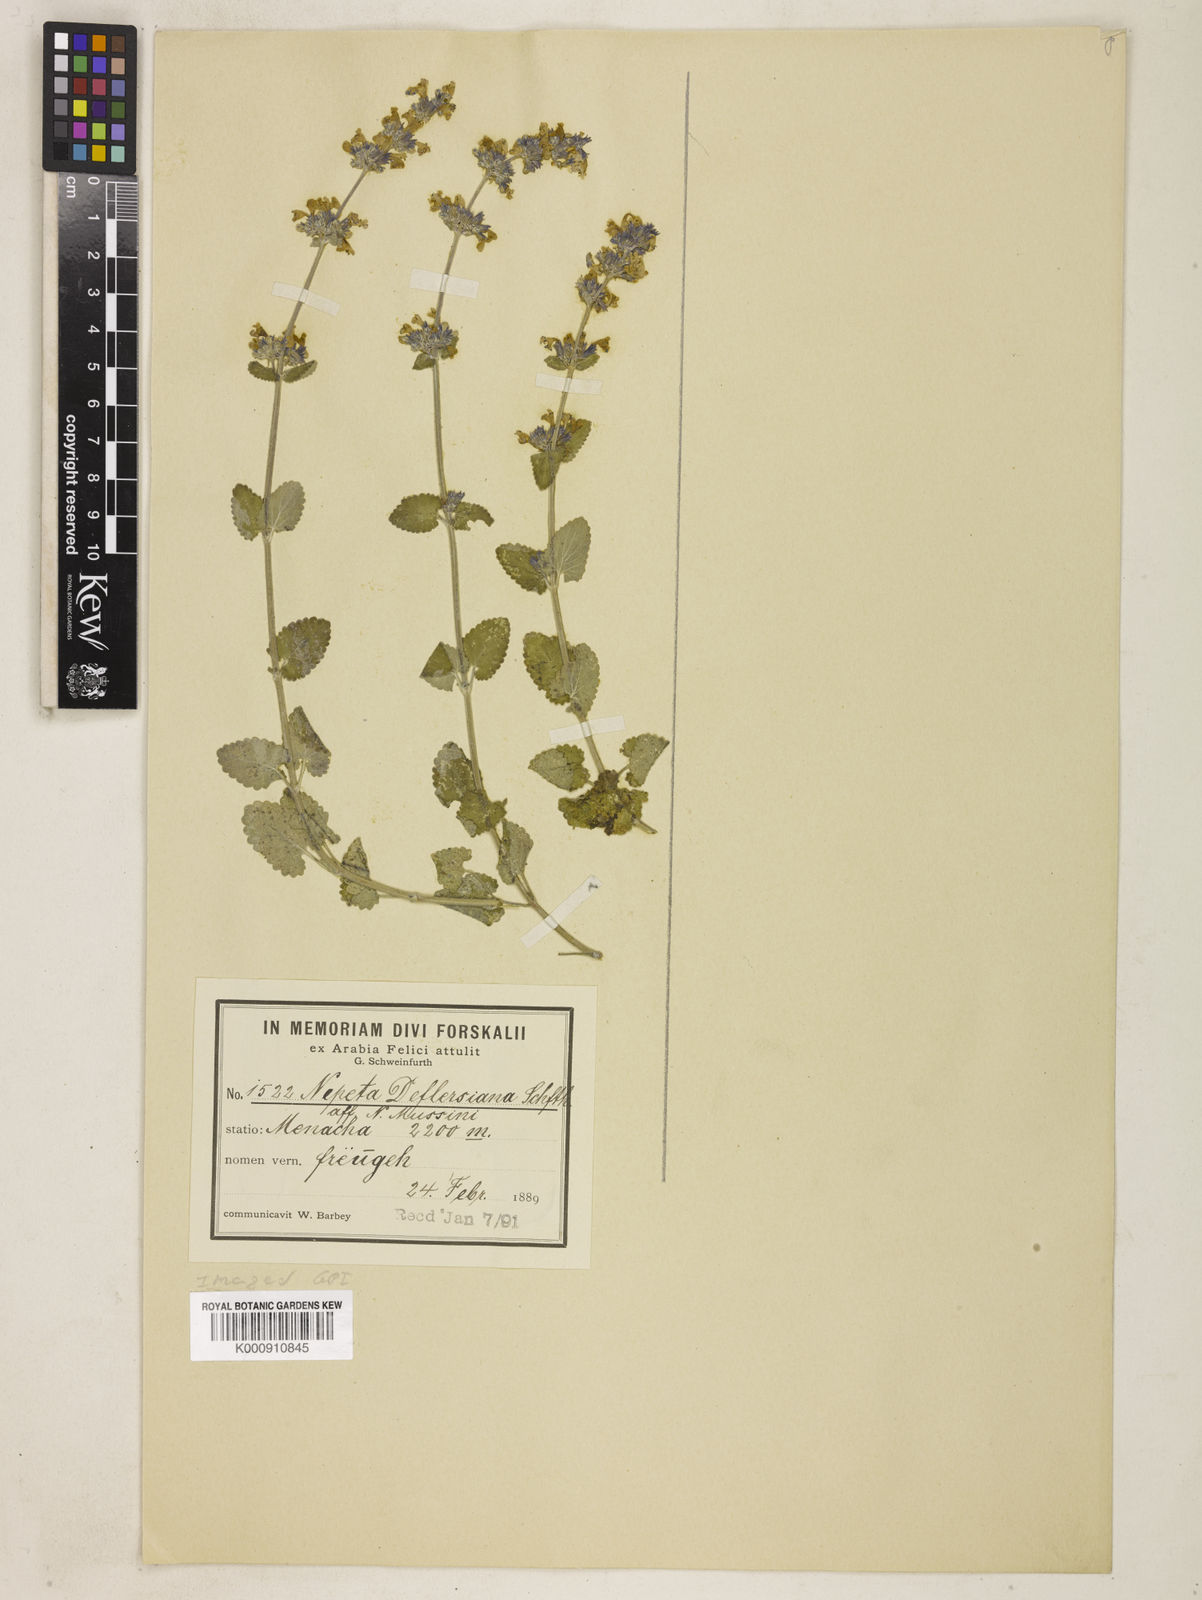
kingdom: Plantae
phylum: Tracheophyta
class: Magnoliopsida
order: Lamiales
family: Lamiaceae
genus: Nepeta
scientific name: Nepeta deflersiana
